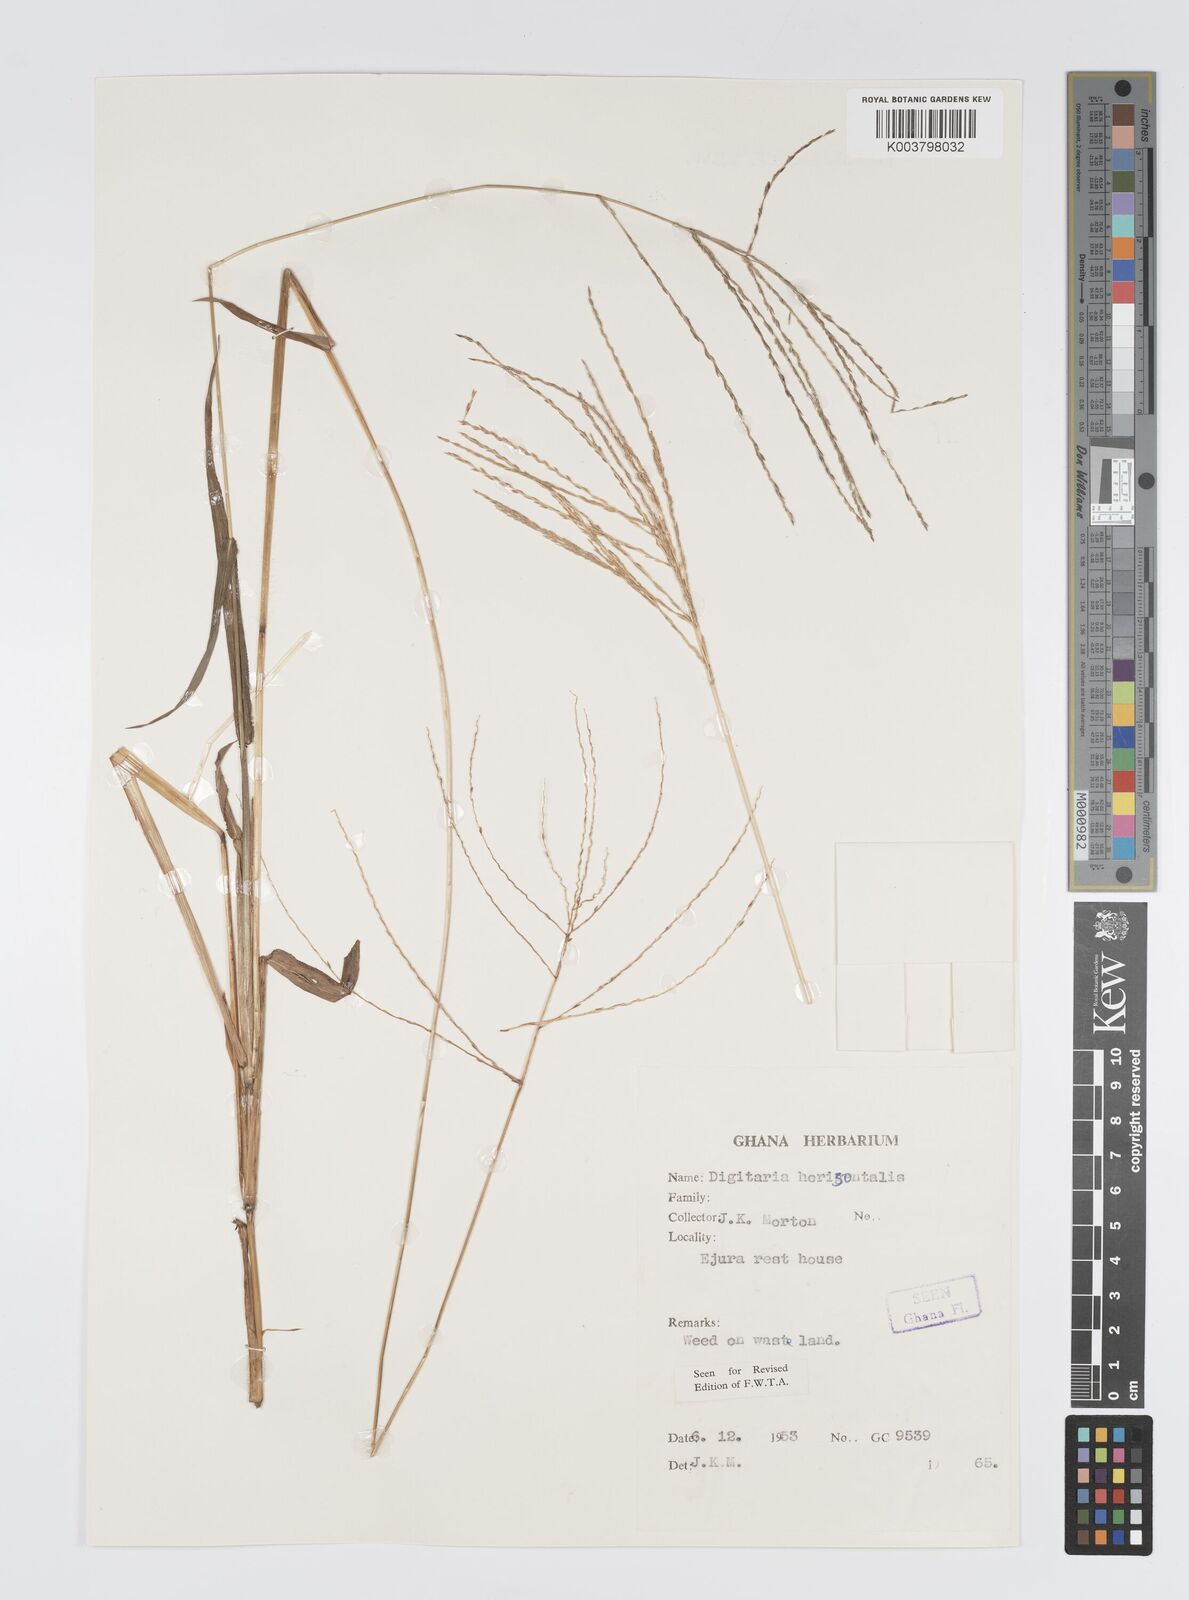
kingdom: Plantae
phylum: Tracheophyta
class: Liliopsida
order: Poales
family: Poaceae
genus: Digitaria
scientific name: Digitaria horizontalis
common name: Jamaican crabgrass
